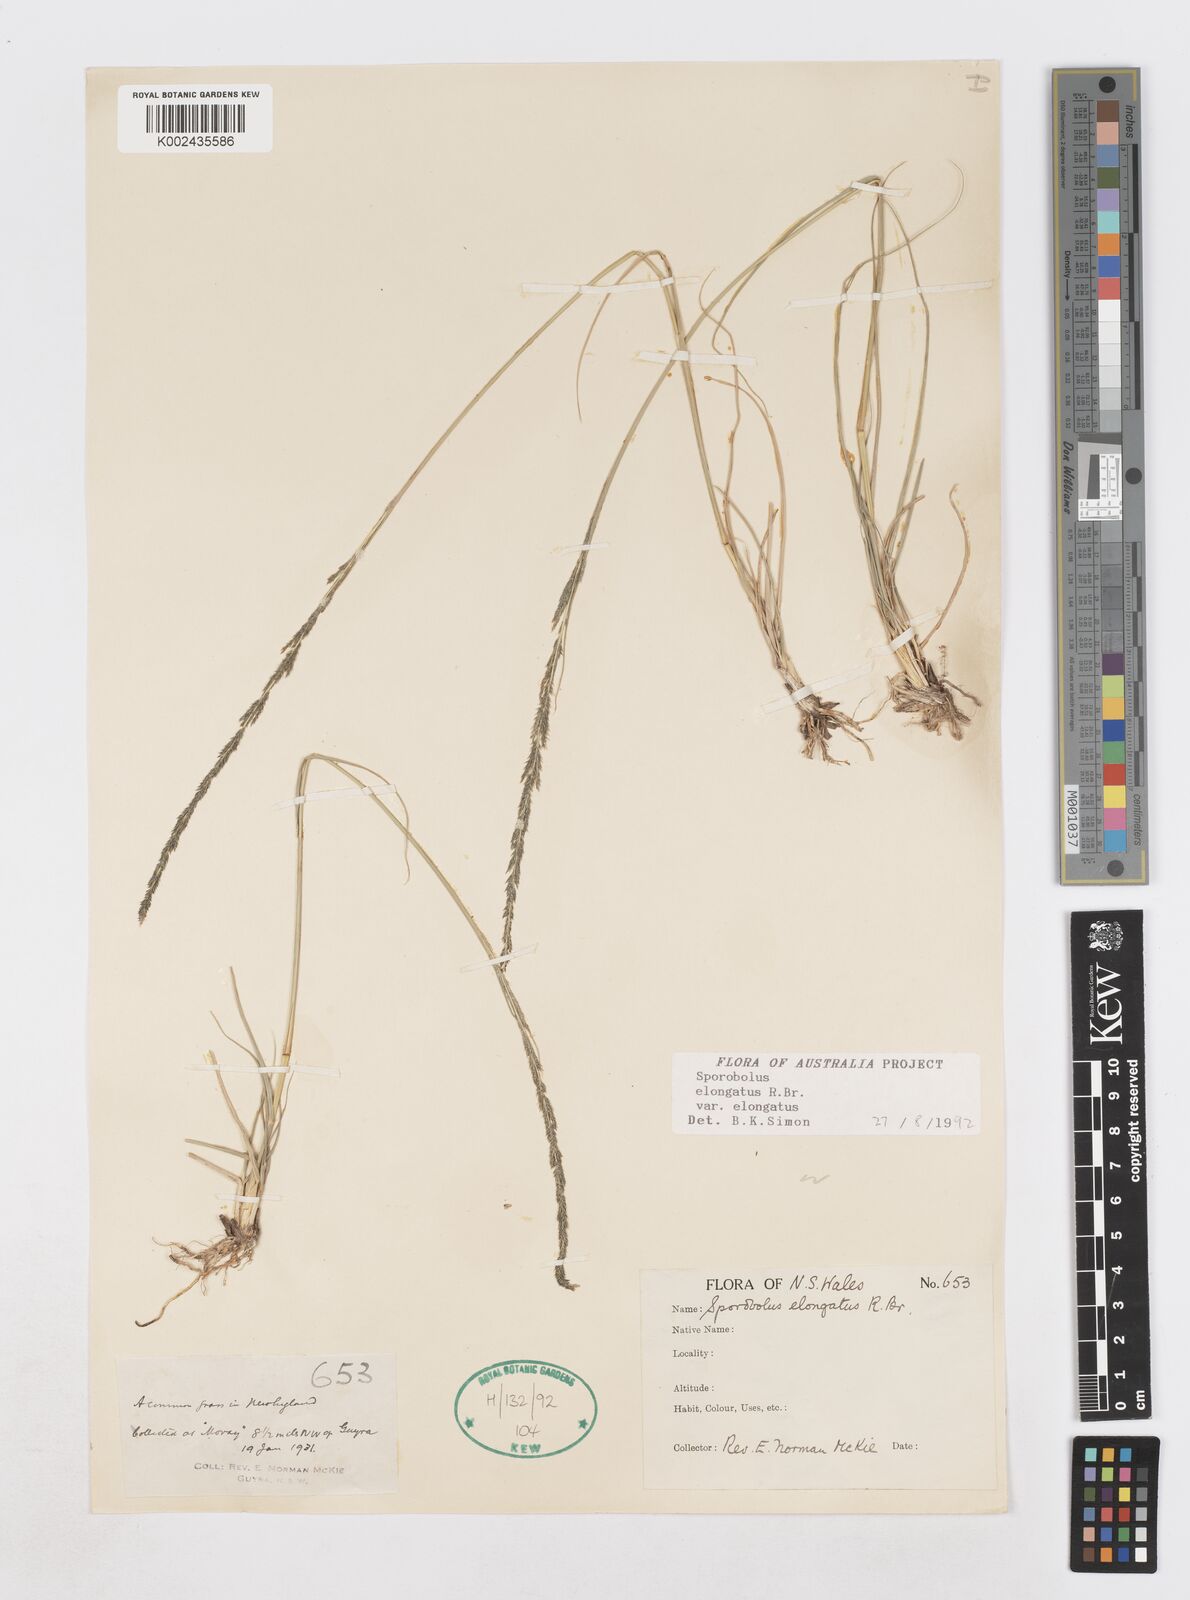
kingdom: Plantae
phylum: Tracheophyta
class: Liliopsida
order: Poales
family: Poaceae
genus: Sporobolus
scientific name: Sporobolus elongatus
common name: Rat tail grass
